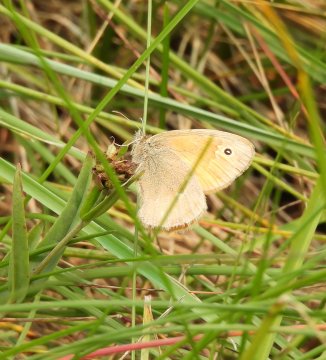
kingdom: Animalia
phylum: Arthropoda
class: Insecta
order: Lepidoptera
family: Nymphalidae
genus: Coenonympha
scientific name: Coenonympha tullia
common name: Large Heath
